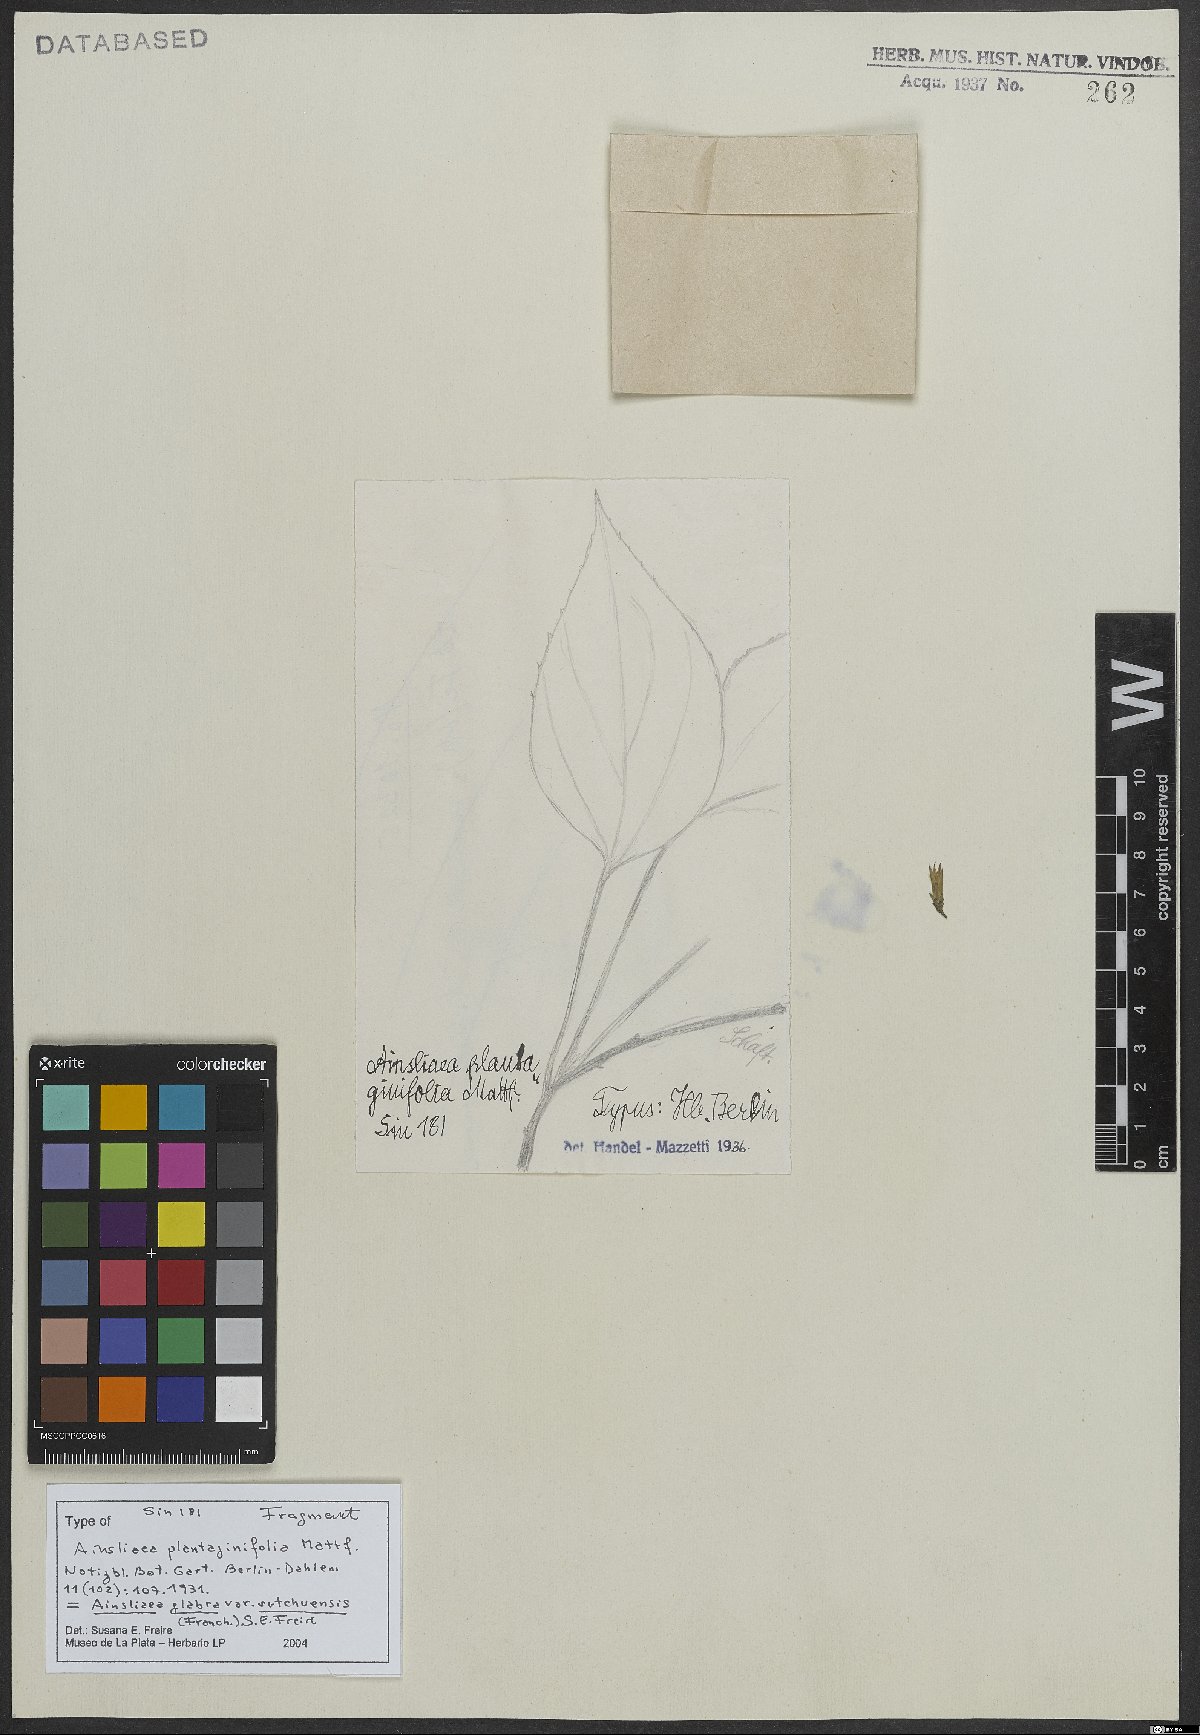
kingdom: Plantae
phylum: Tracheophyta
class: Magnoliopsida
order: Asterales
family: Asteraceae
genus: Ainsliaea
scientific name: Ainsliaea glabra
